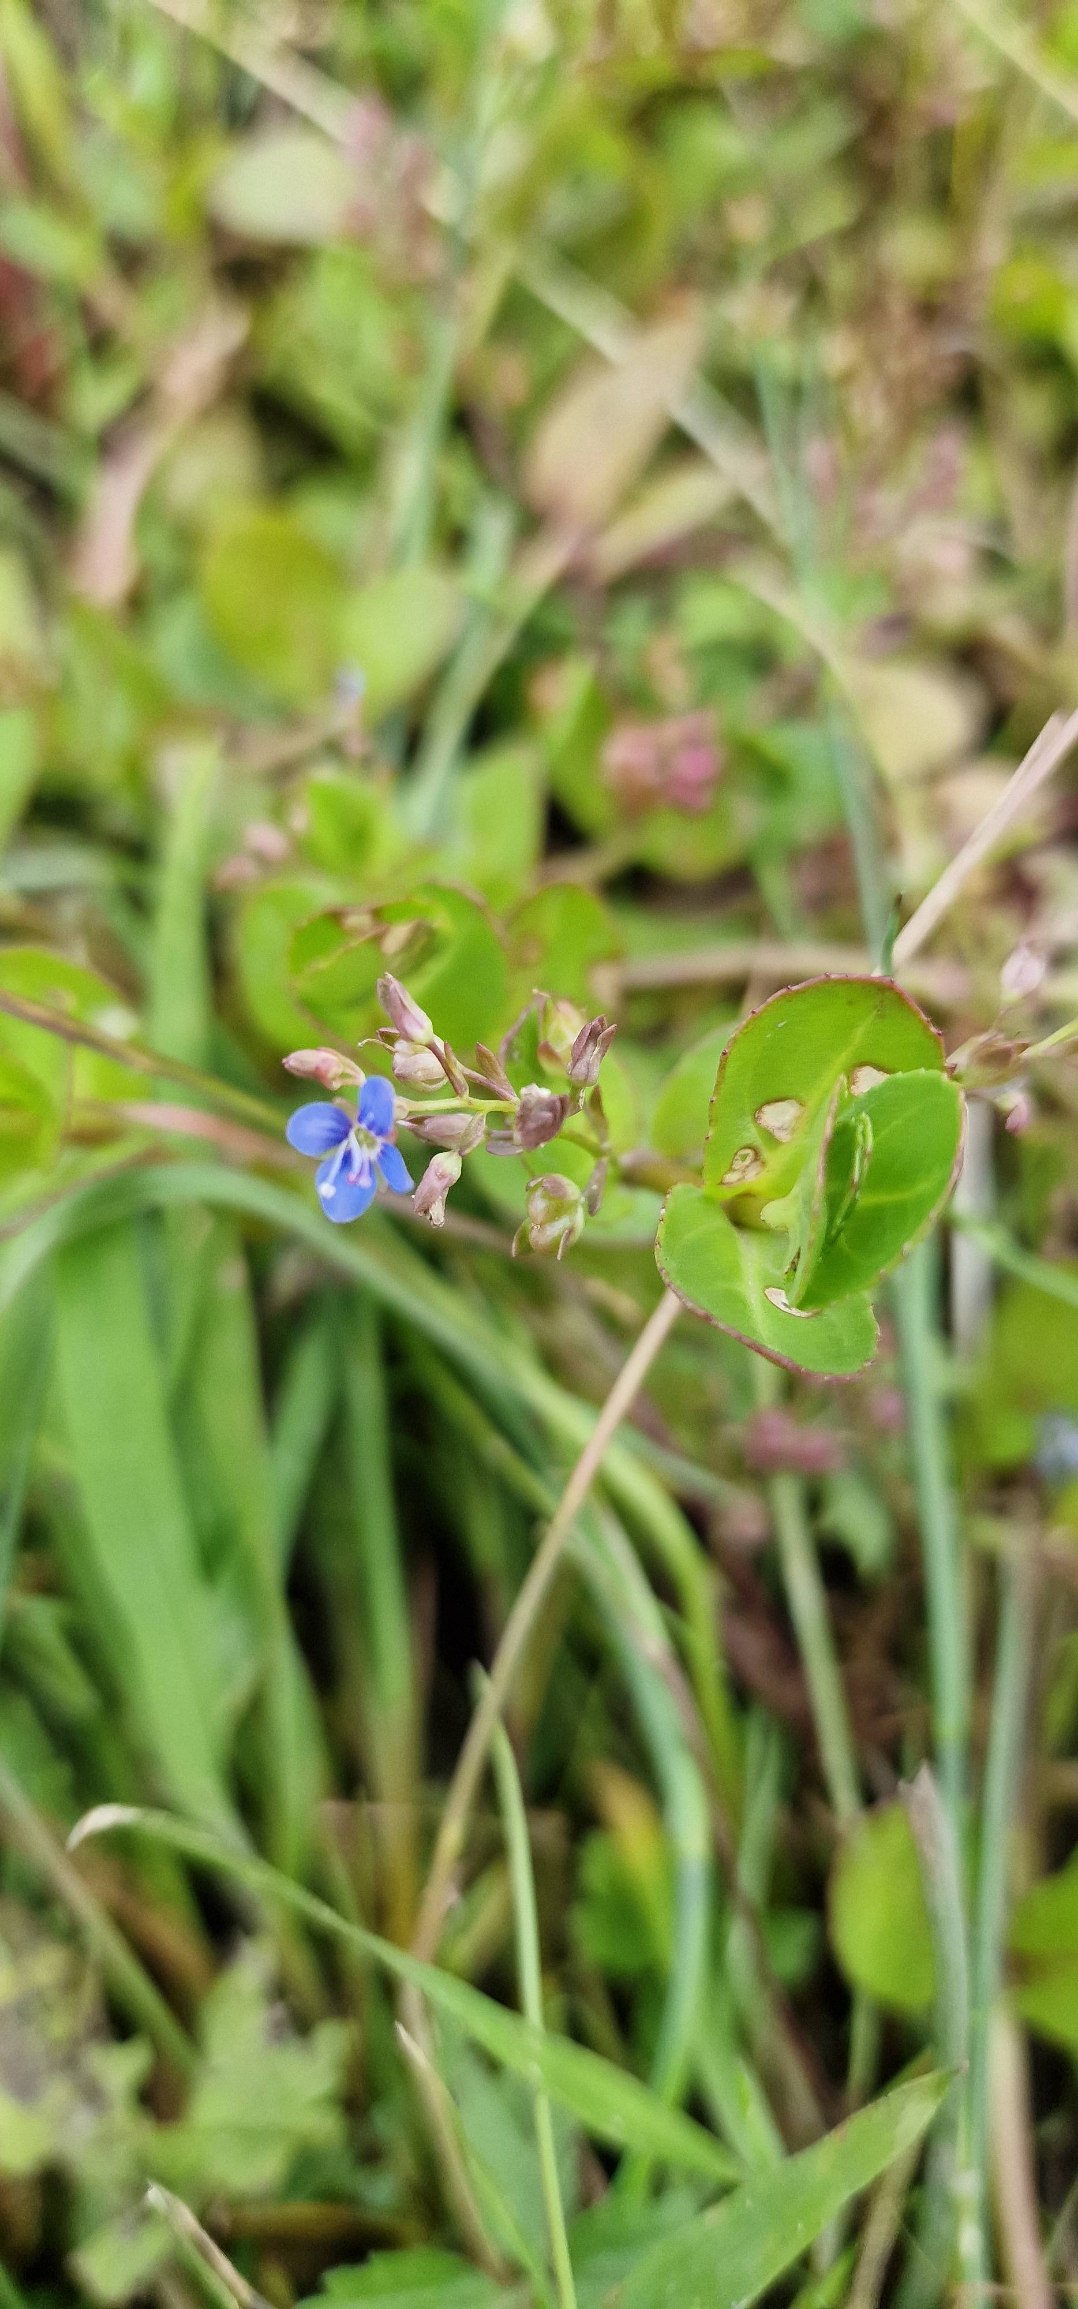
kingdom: Plantae
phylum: Tracheophyta
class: Magnoliopsida
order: Lamiales
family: Plantaginaceae
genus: Veronica
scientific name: Veronica beccabunga
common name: Tykbladet ærenpris
